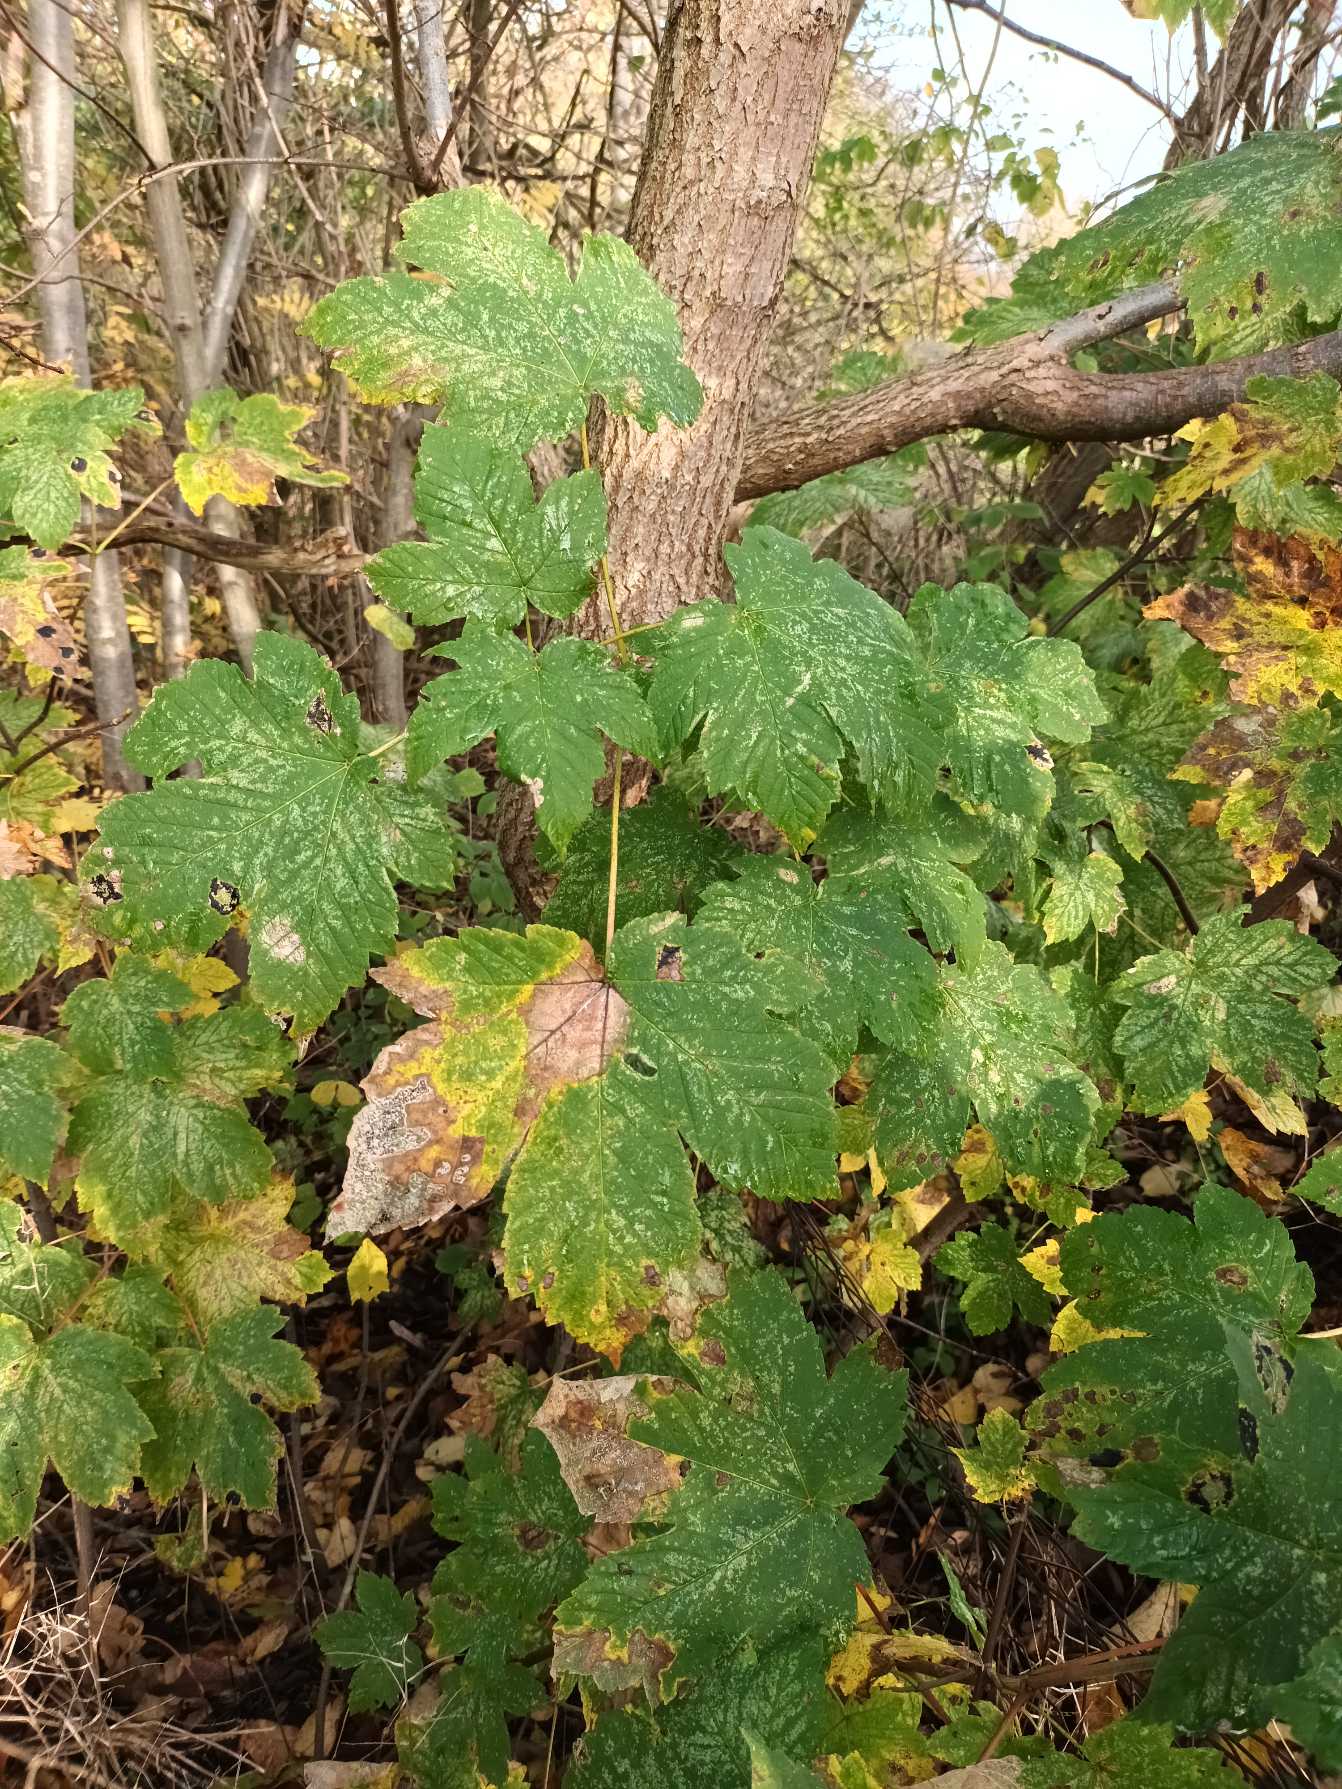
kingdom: Plantae
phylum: Tracheophyta
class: Magnoliopsida
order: Sapindales
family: Sapindaceae
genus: Acer
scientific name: Acer pseudoplatanus
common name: Ahorn
